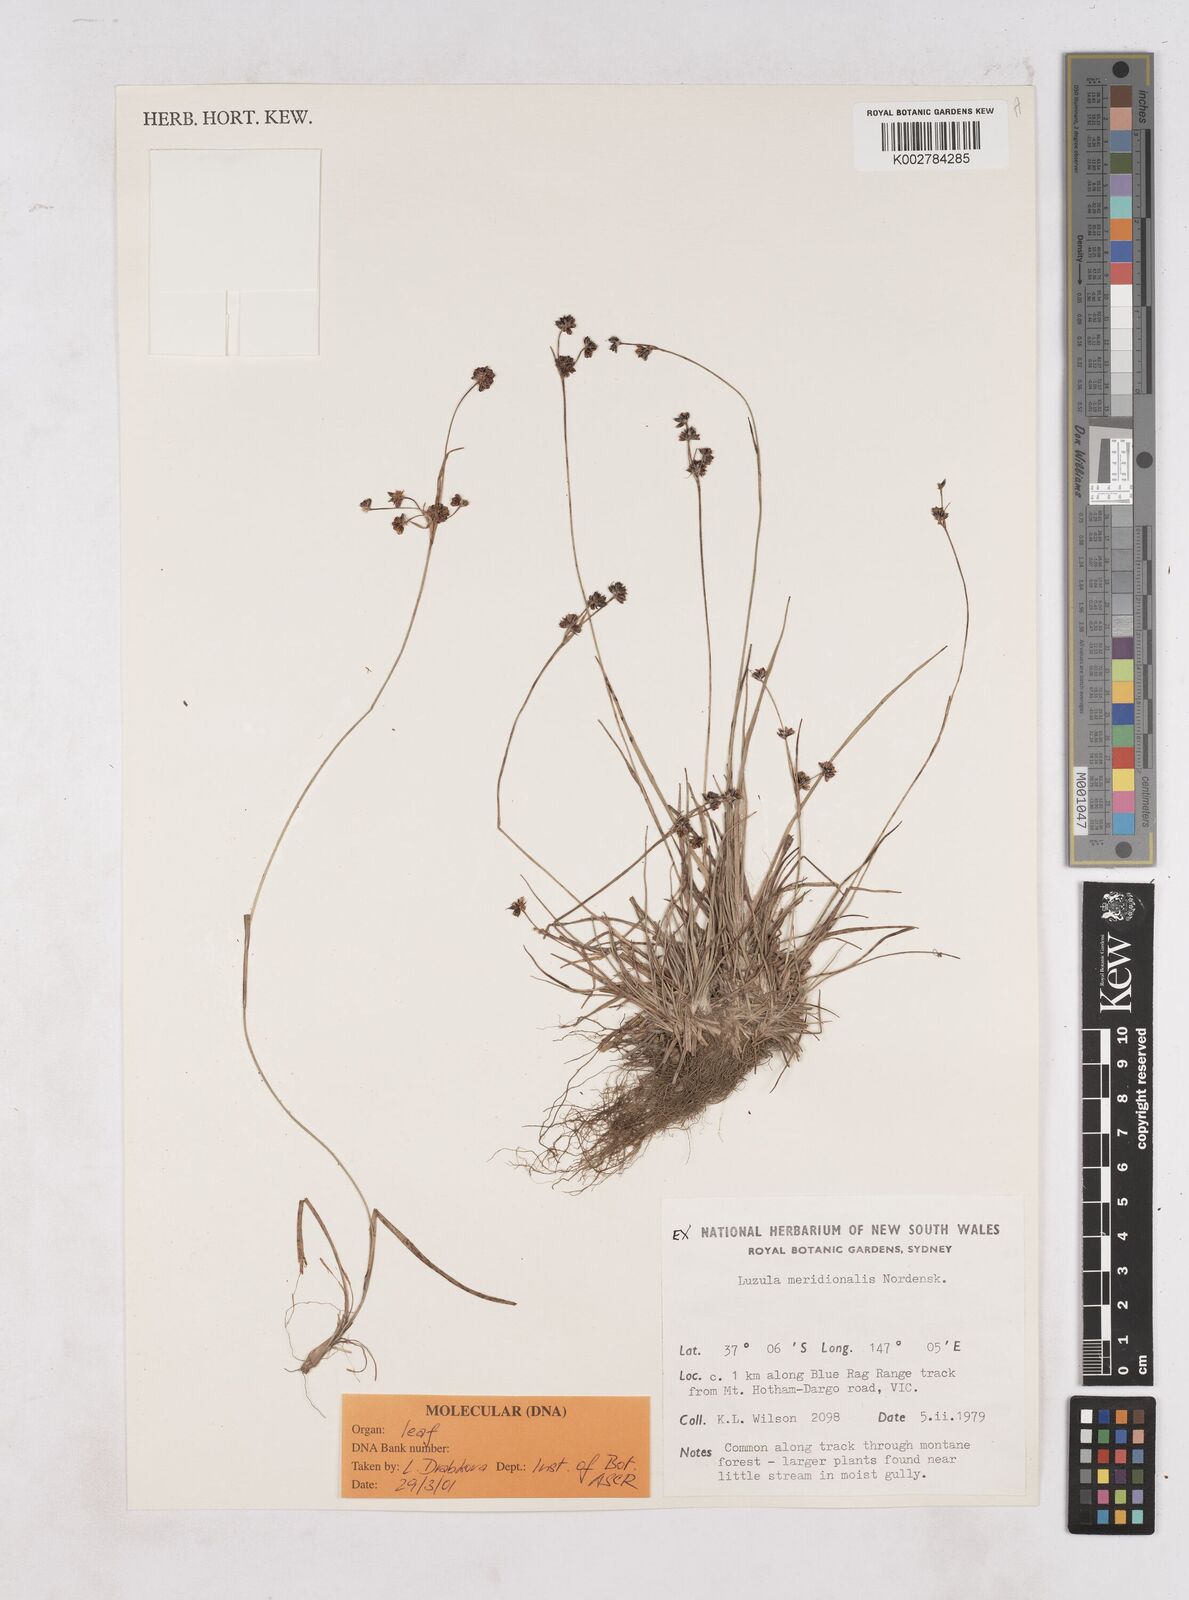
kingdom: Plantae
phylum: Tracheophyta
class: Liliopsida
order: Poales
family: Juncaceae
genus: Luzula
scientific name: Luzula meridionalis
